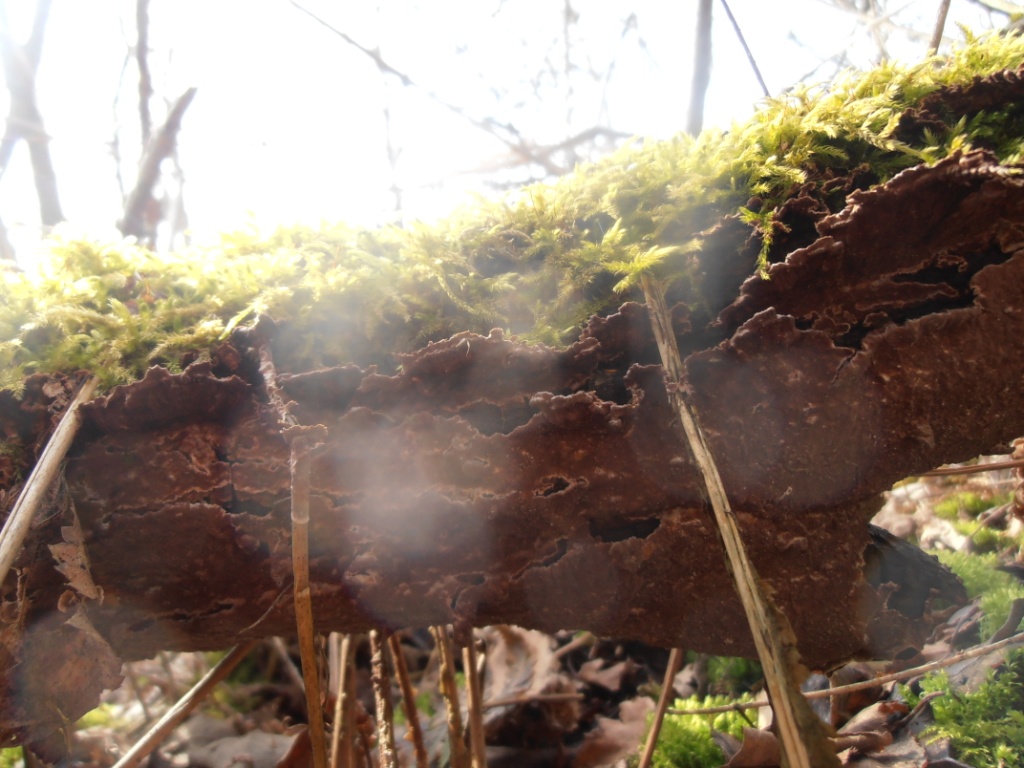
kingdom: Fungi
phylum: Basidiomycota
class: Agaricomycetes
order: Hymenochaetales
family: Hymenochaetaceae
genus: Hydnoporia
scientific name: Hydnoporia tabacina
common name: tobaksbrun ruslædersvamp
